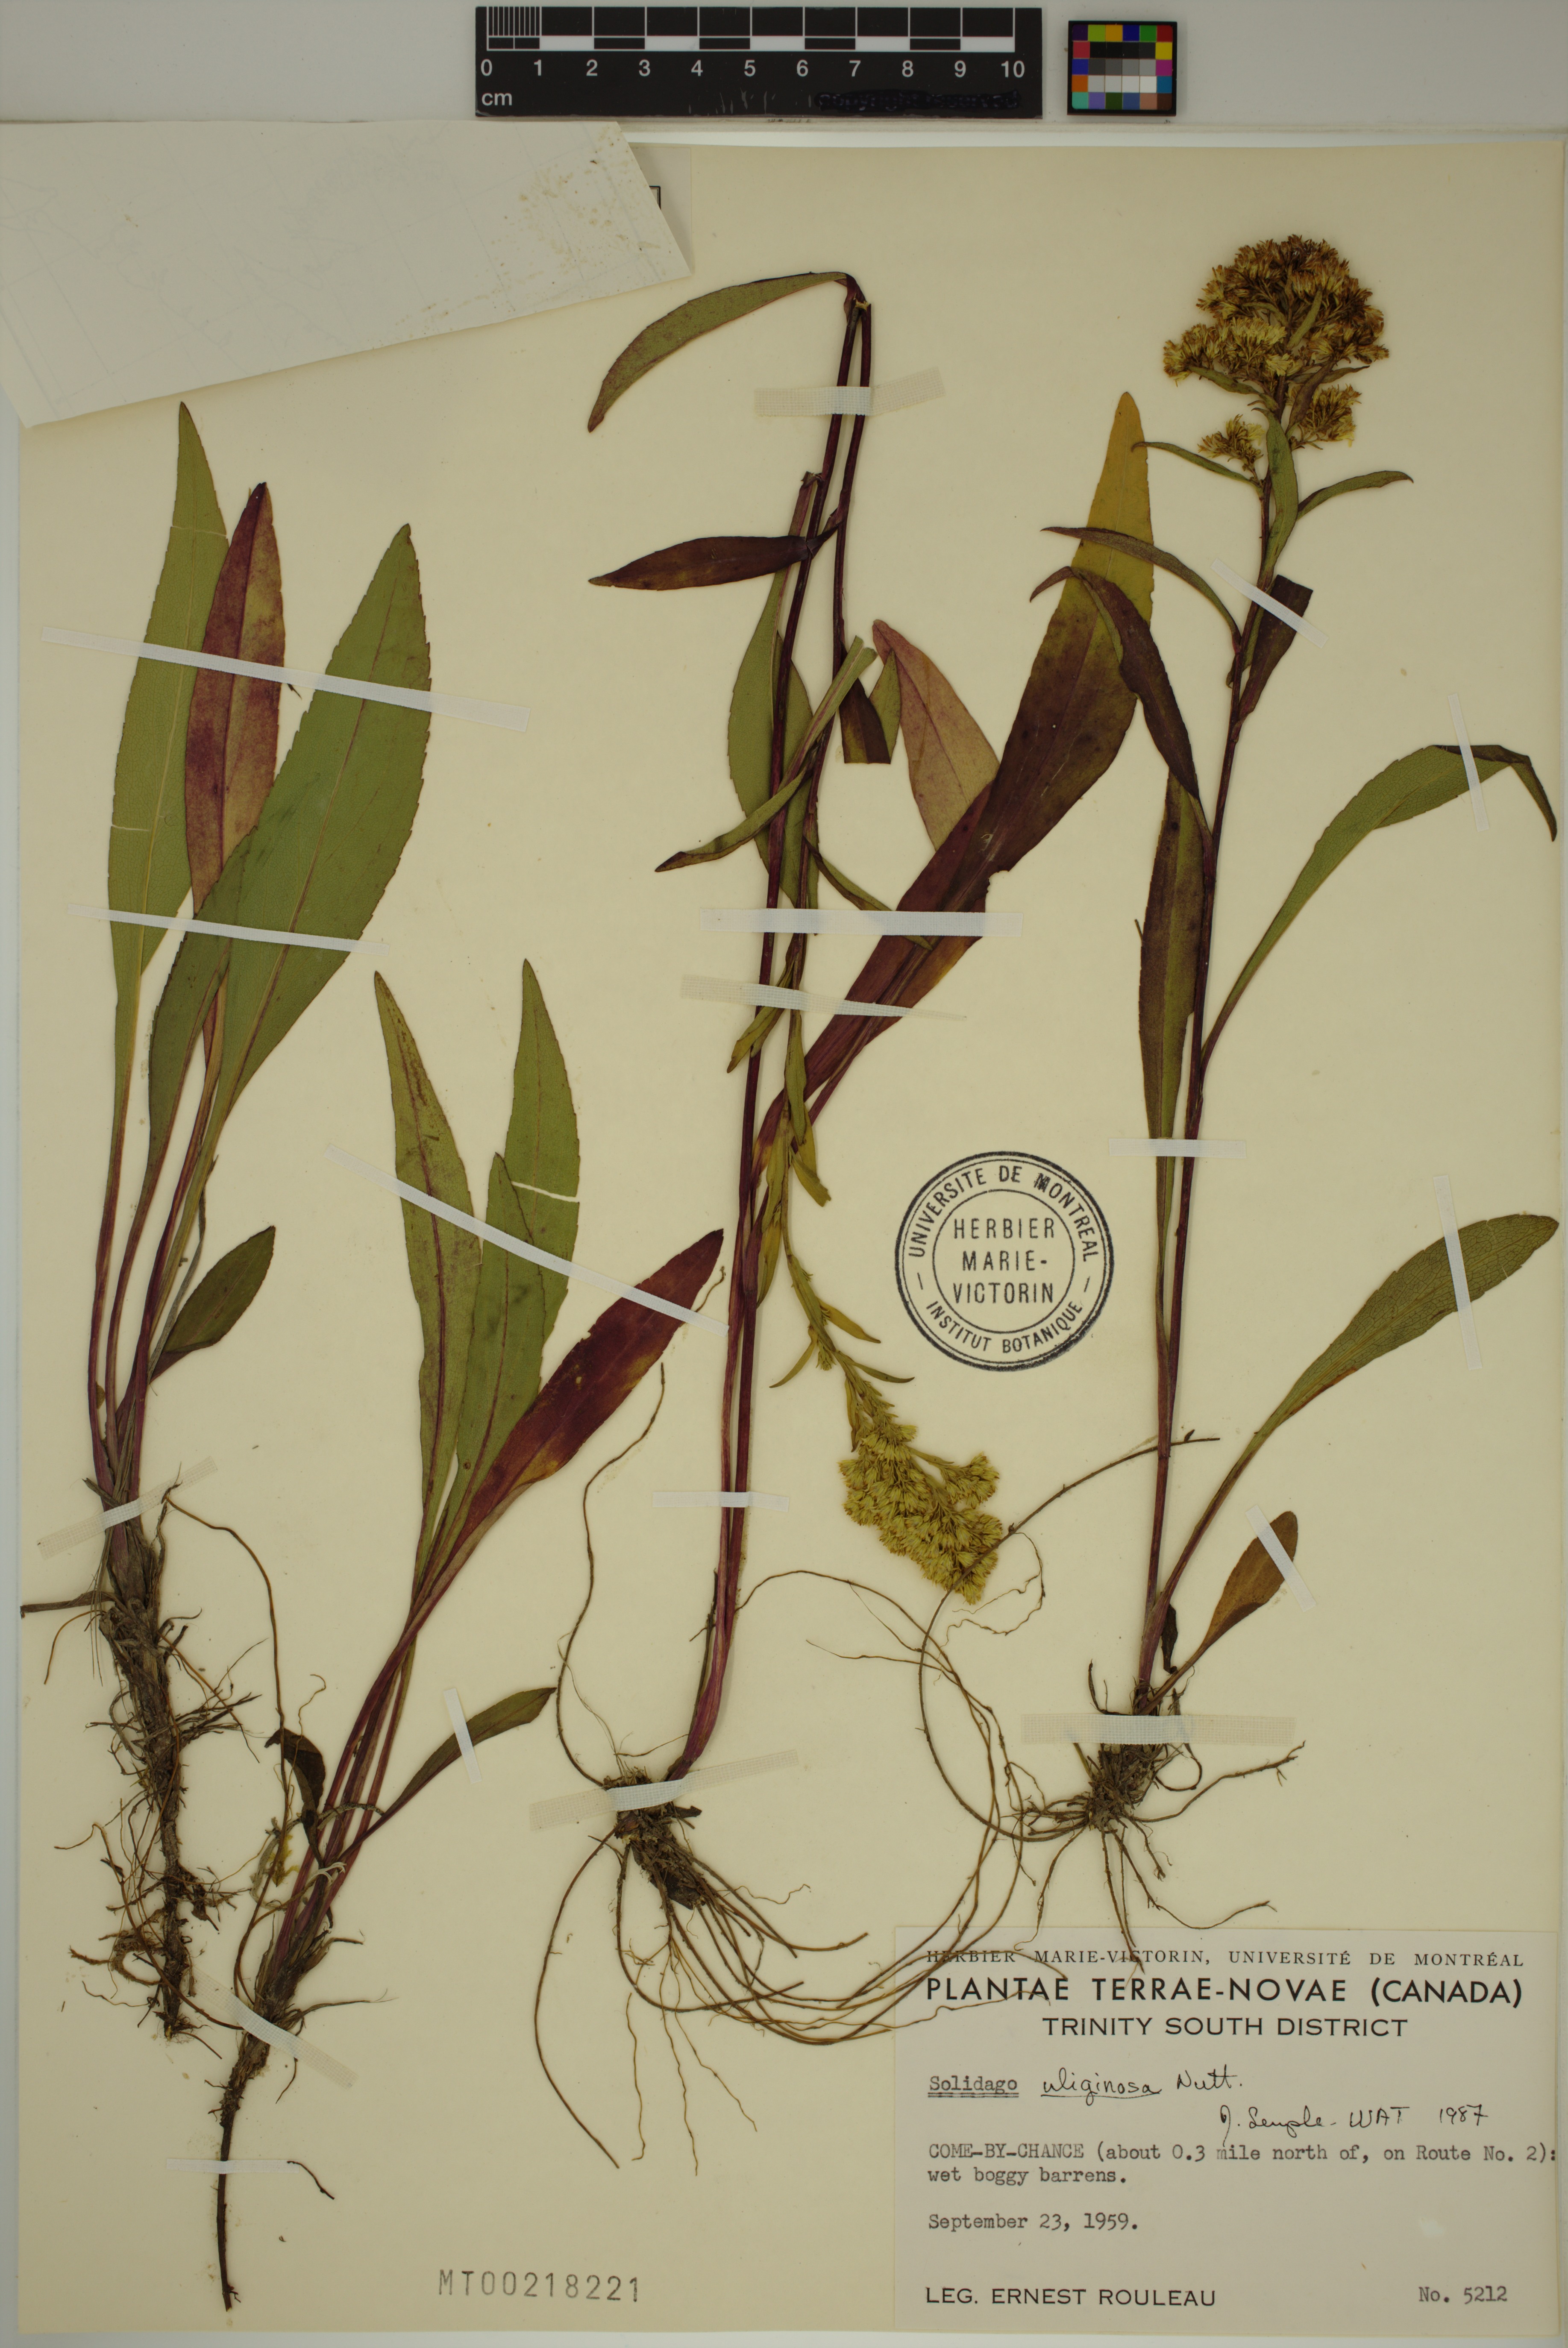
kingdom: Plantae
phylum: Tracheophyta
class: Magnoliopsida
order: Asterales
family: Asteraceae
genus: Solidago
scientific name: Solidago uliginosa
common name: Bog goldenrod
